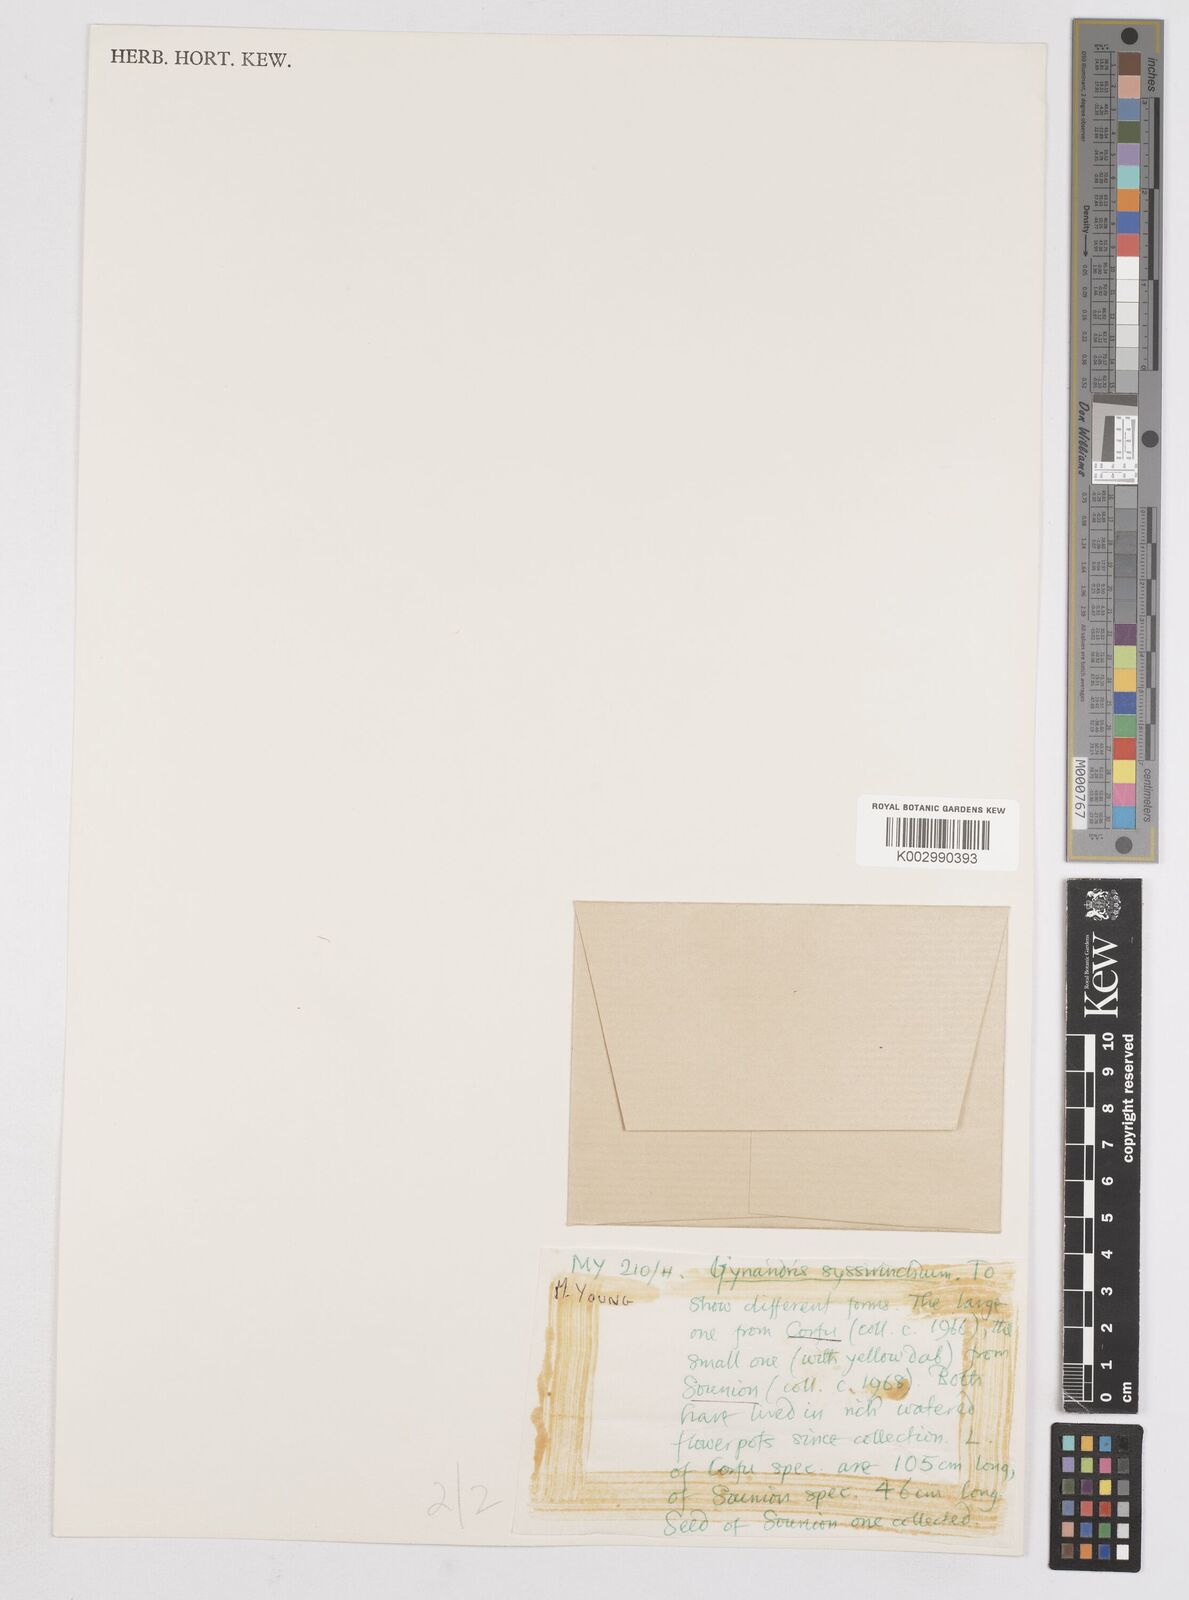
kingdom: Plantae
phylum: Tracheophyta
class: Liliopsida
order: Asparagales
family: Iridaceae
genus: Moraea
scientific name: Moraea
